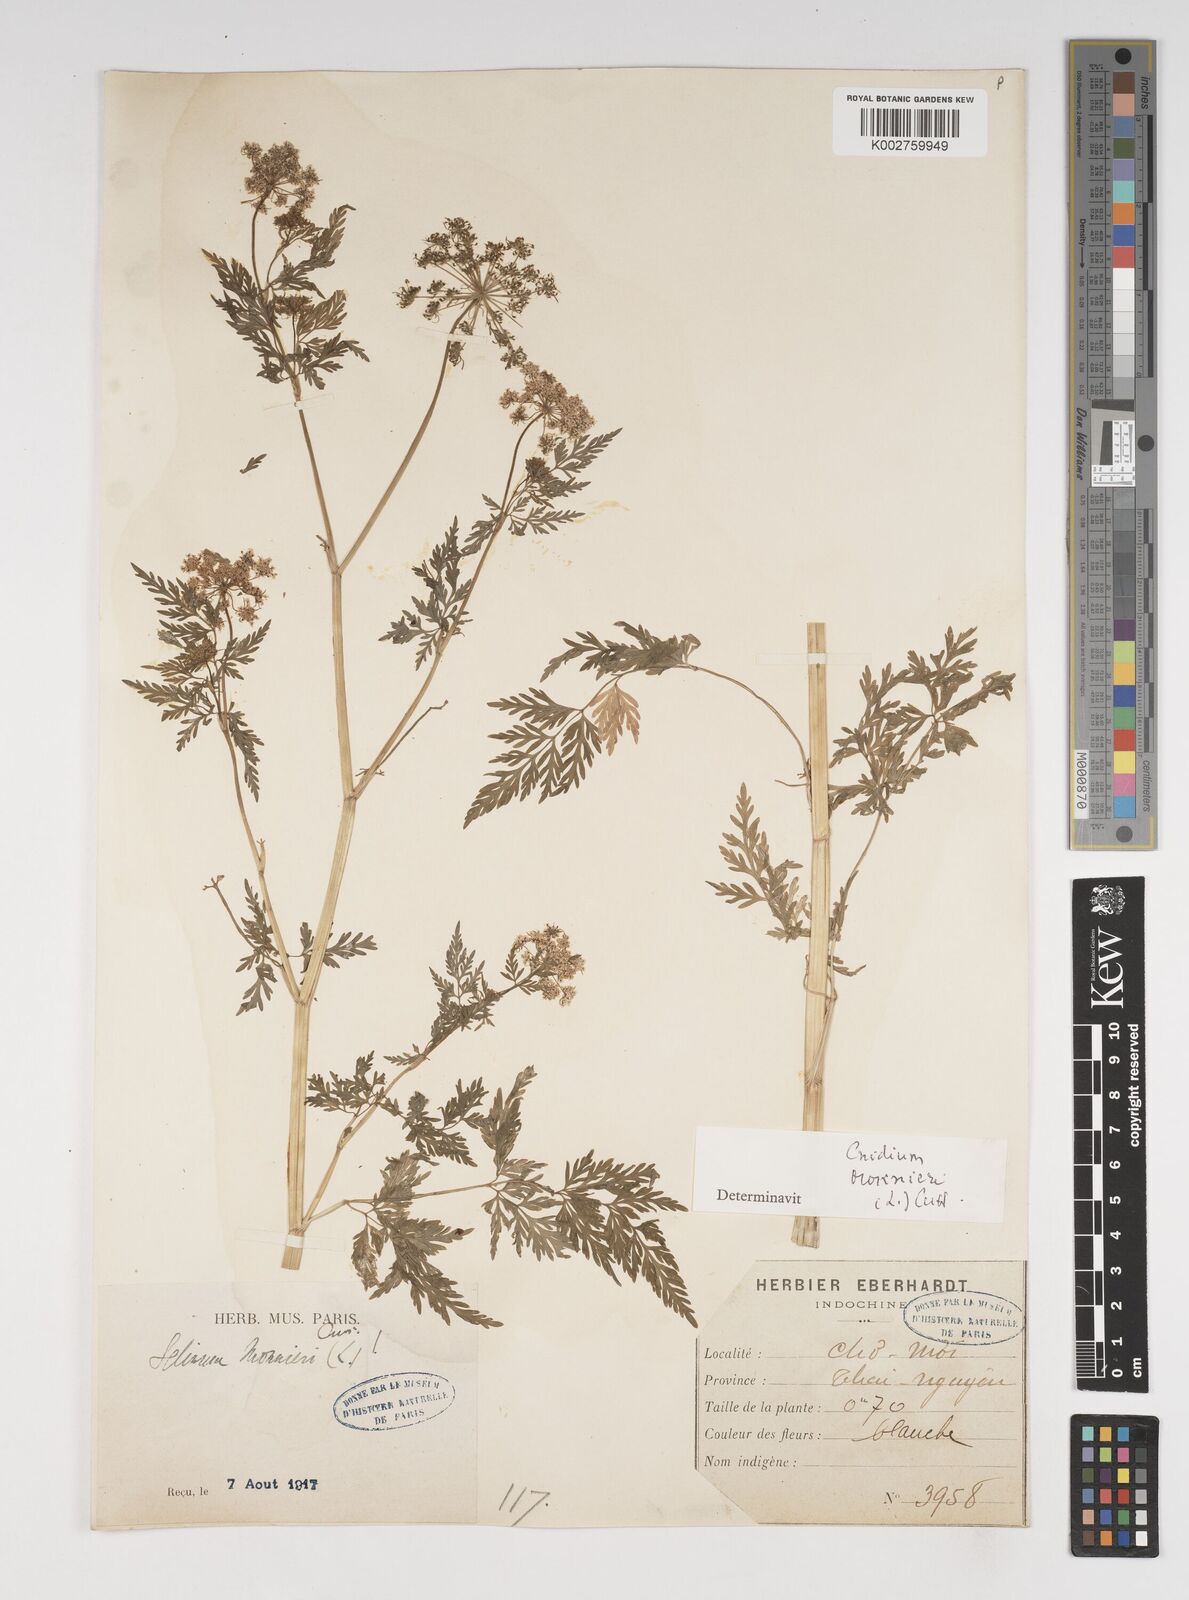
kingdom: Plantae
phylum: Tracheophyta
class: Magnoliopsida
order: Apiales
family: Apiaceae
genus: Cnidium
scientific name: Cnidium monnieri
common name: Monnier's snowparsley
